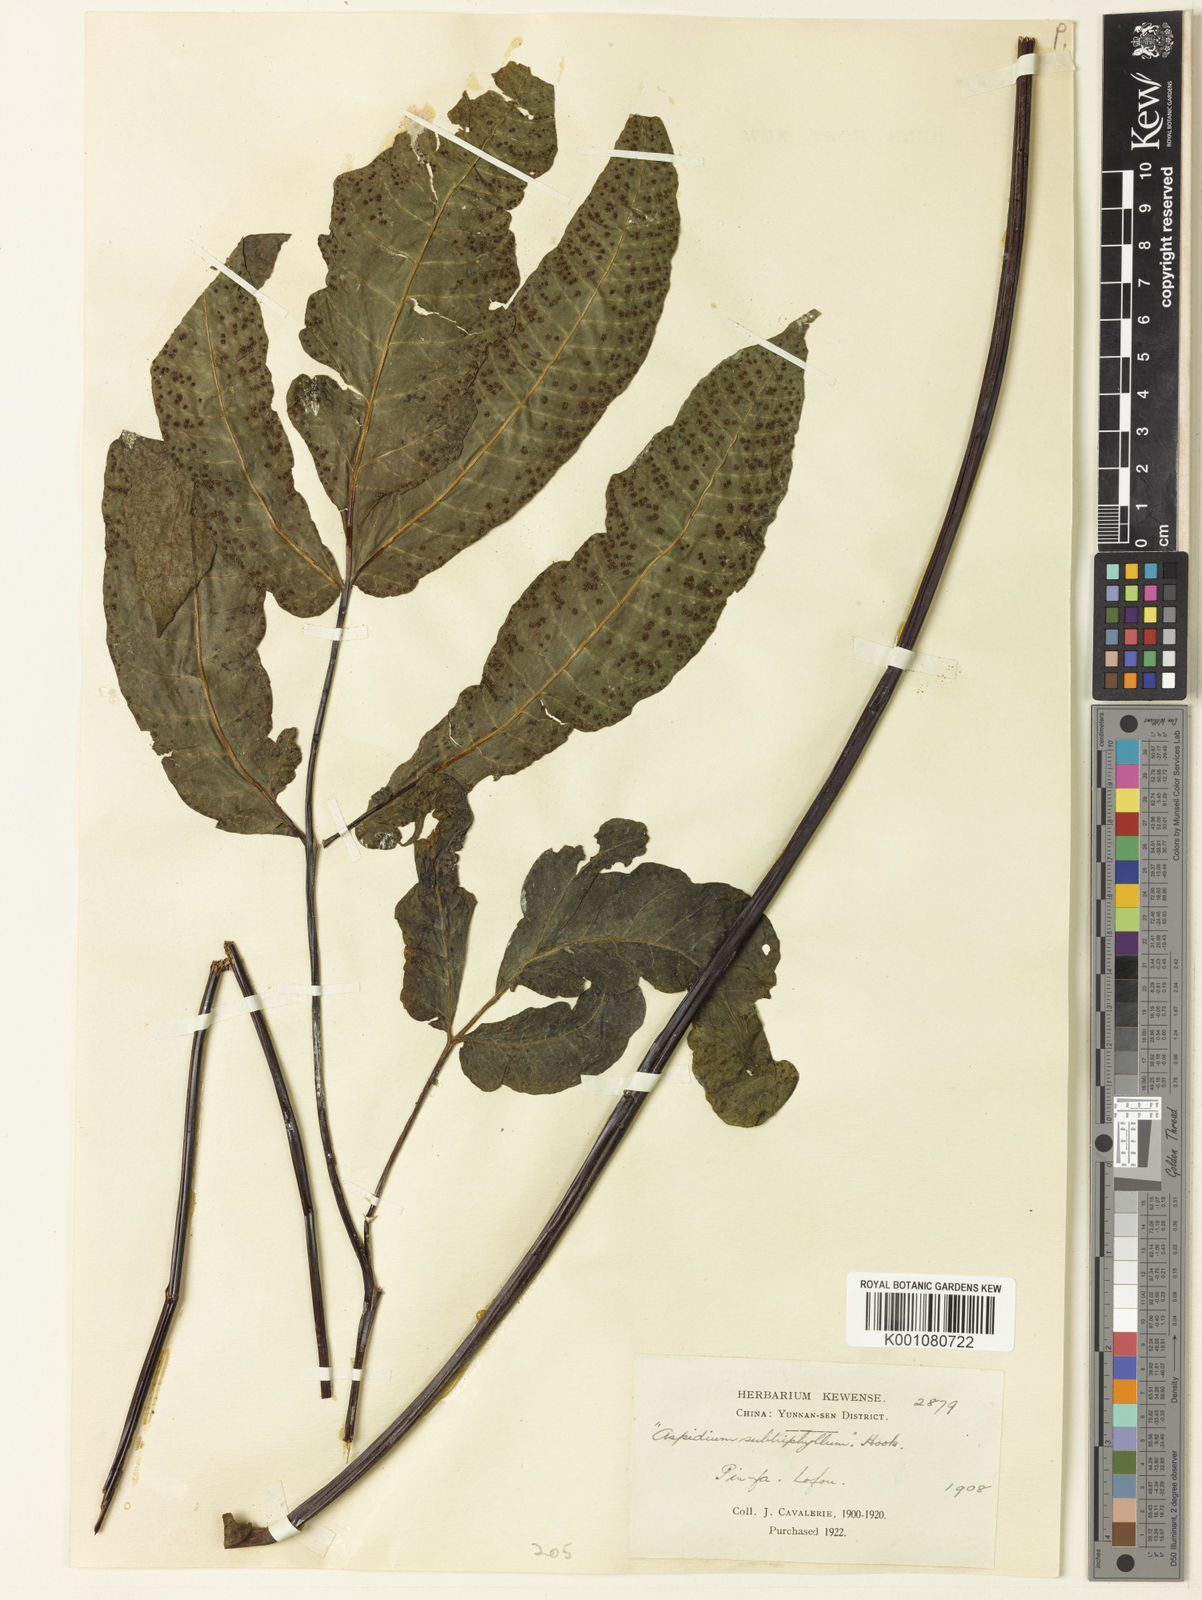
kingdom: Plantae
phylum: Tracheophyta
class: Polypodiopsida
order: Polypodiales
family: Tectariaceae
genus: Tectaria
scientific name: Tectaria simonsii
